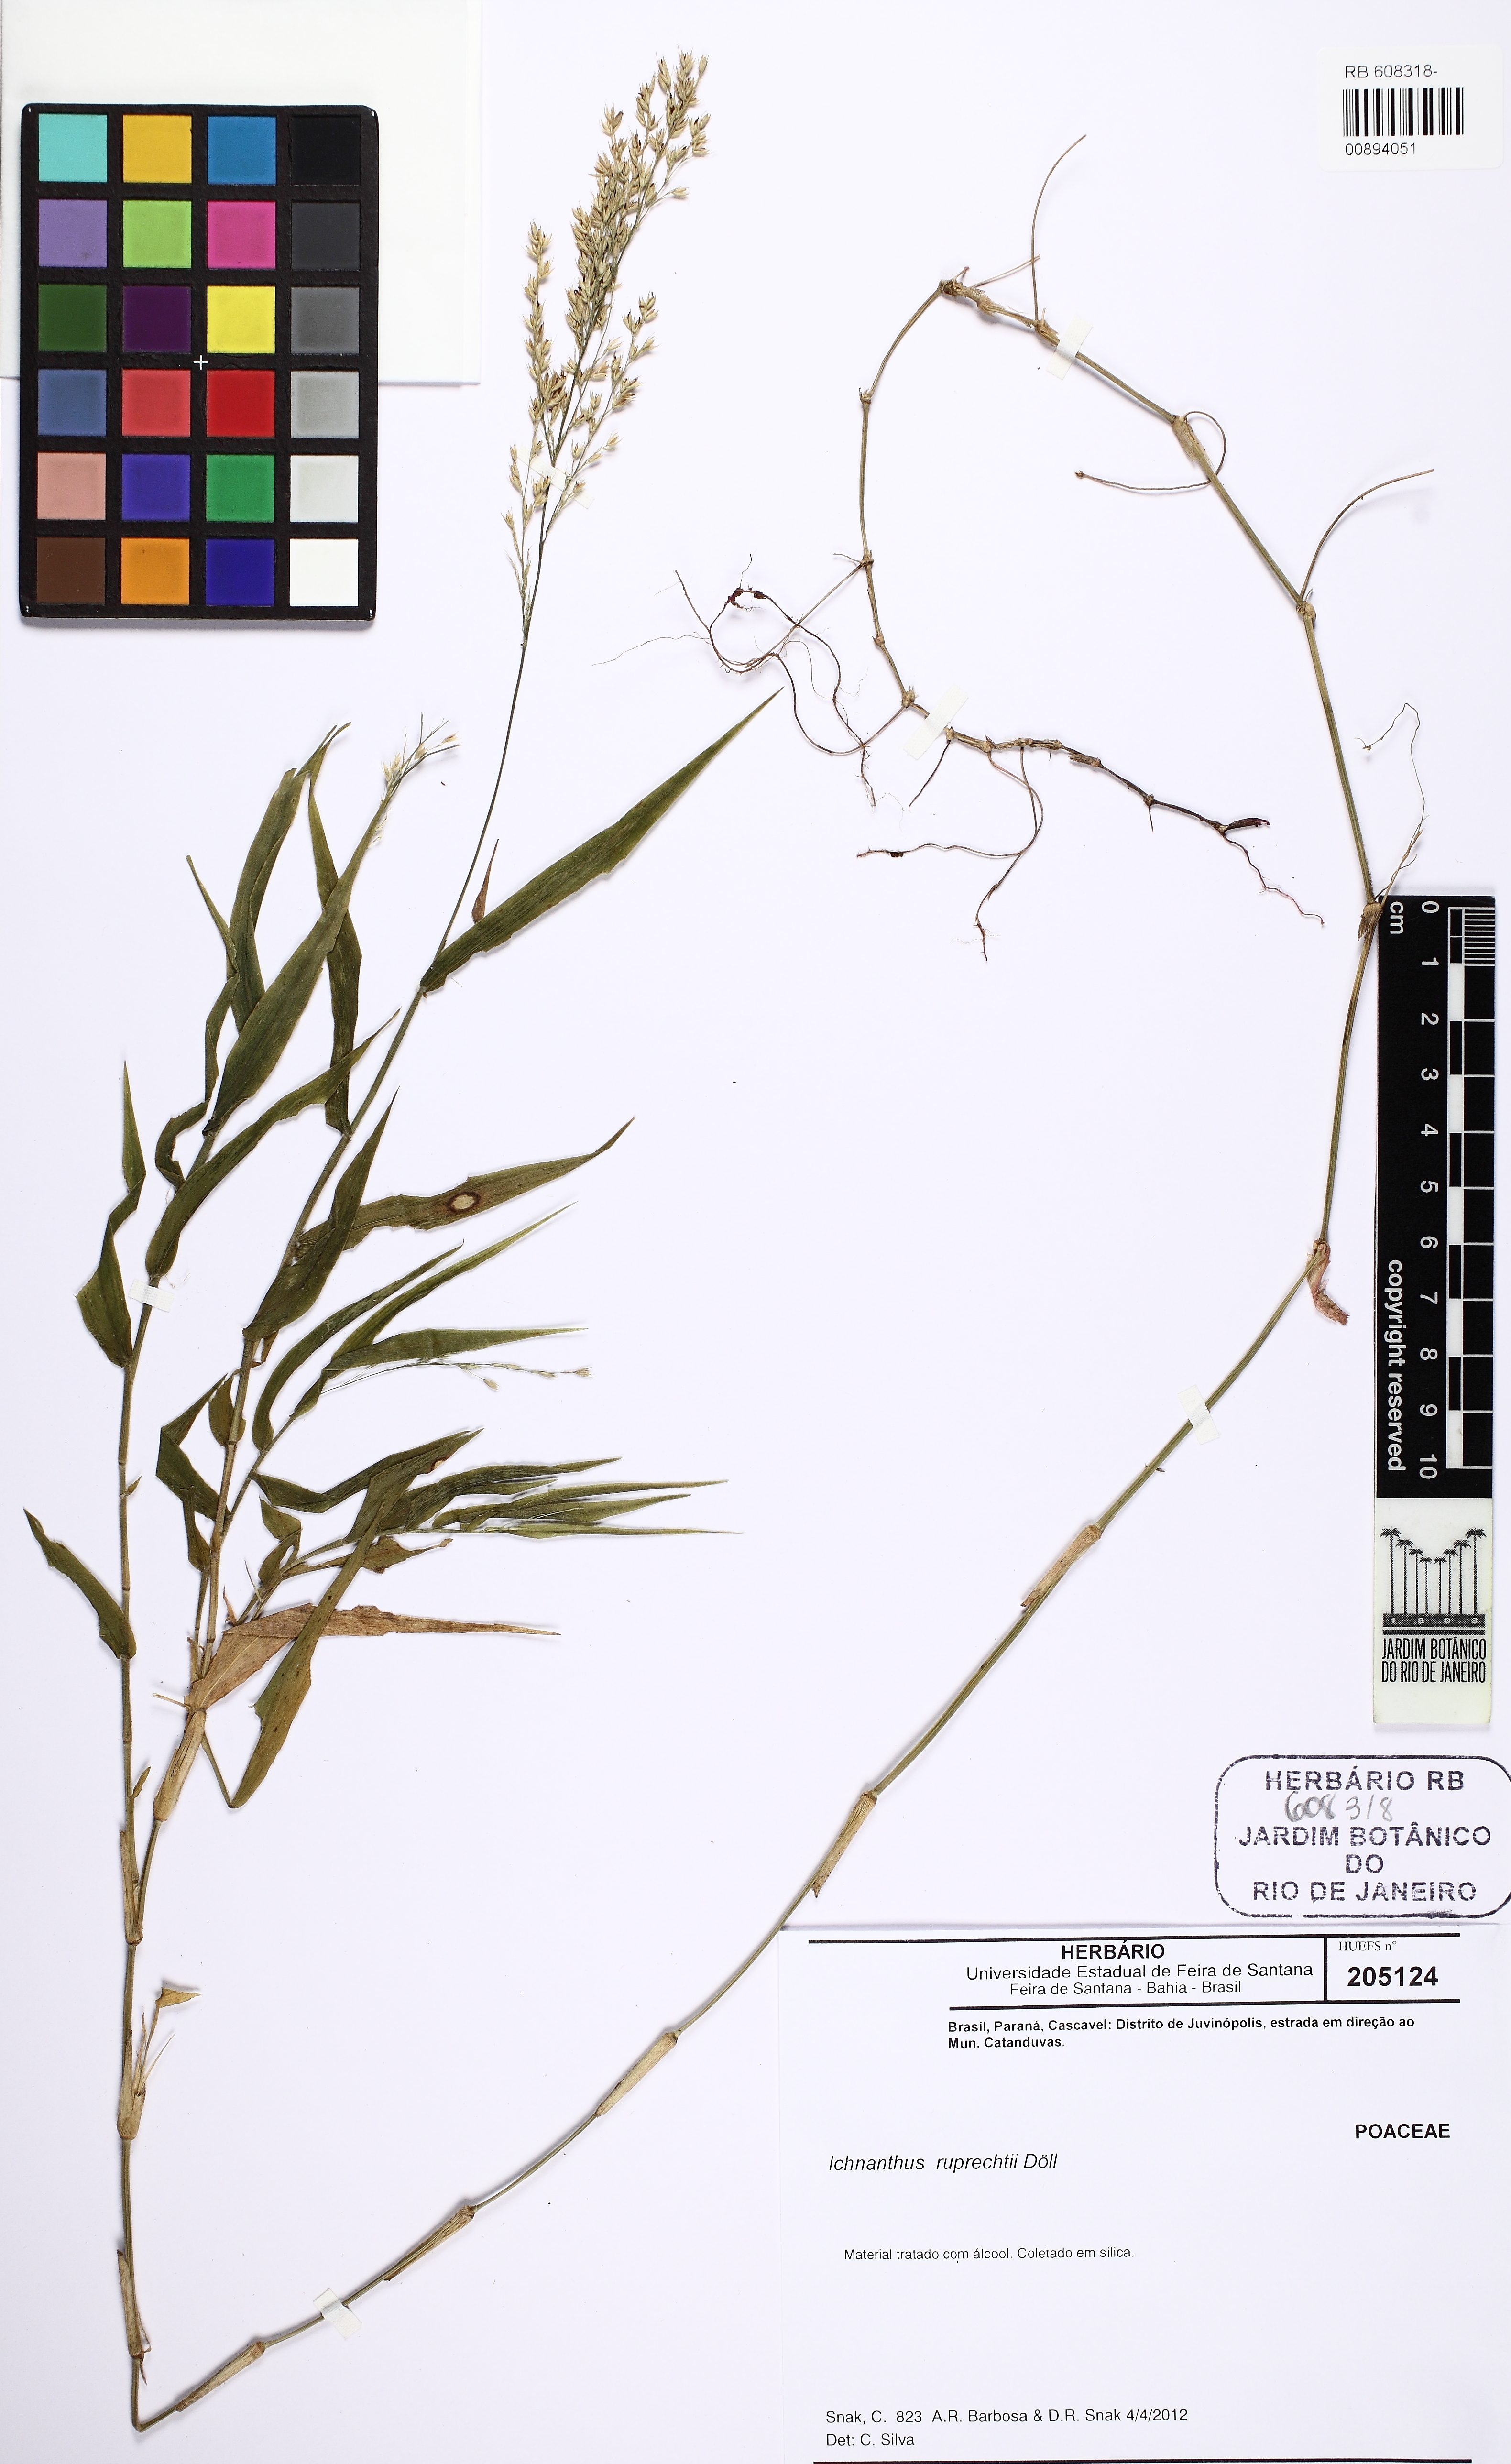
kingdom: Plantae
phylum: Tracheophyta
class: Liliopsida
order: Poales
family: Poaceae
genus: Ichnanthus
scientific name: Ichnanthus ruprechtii
